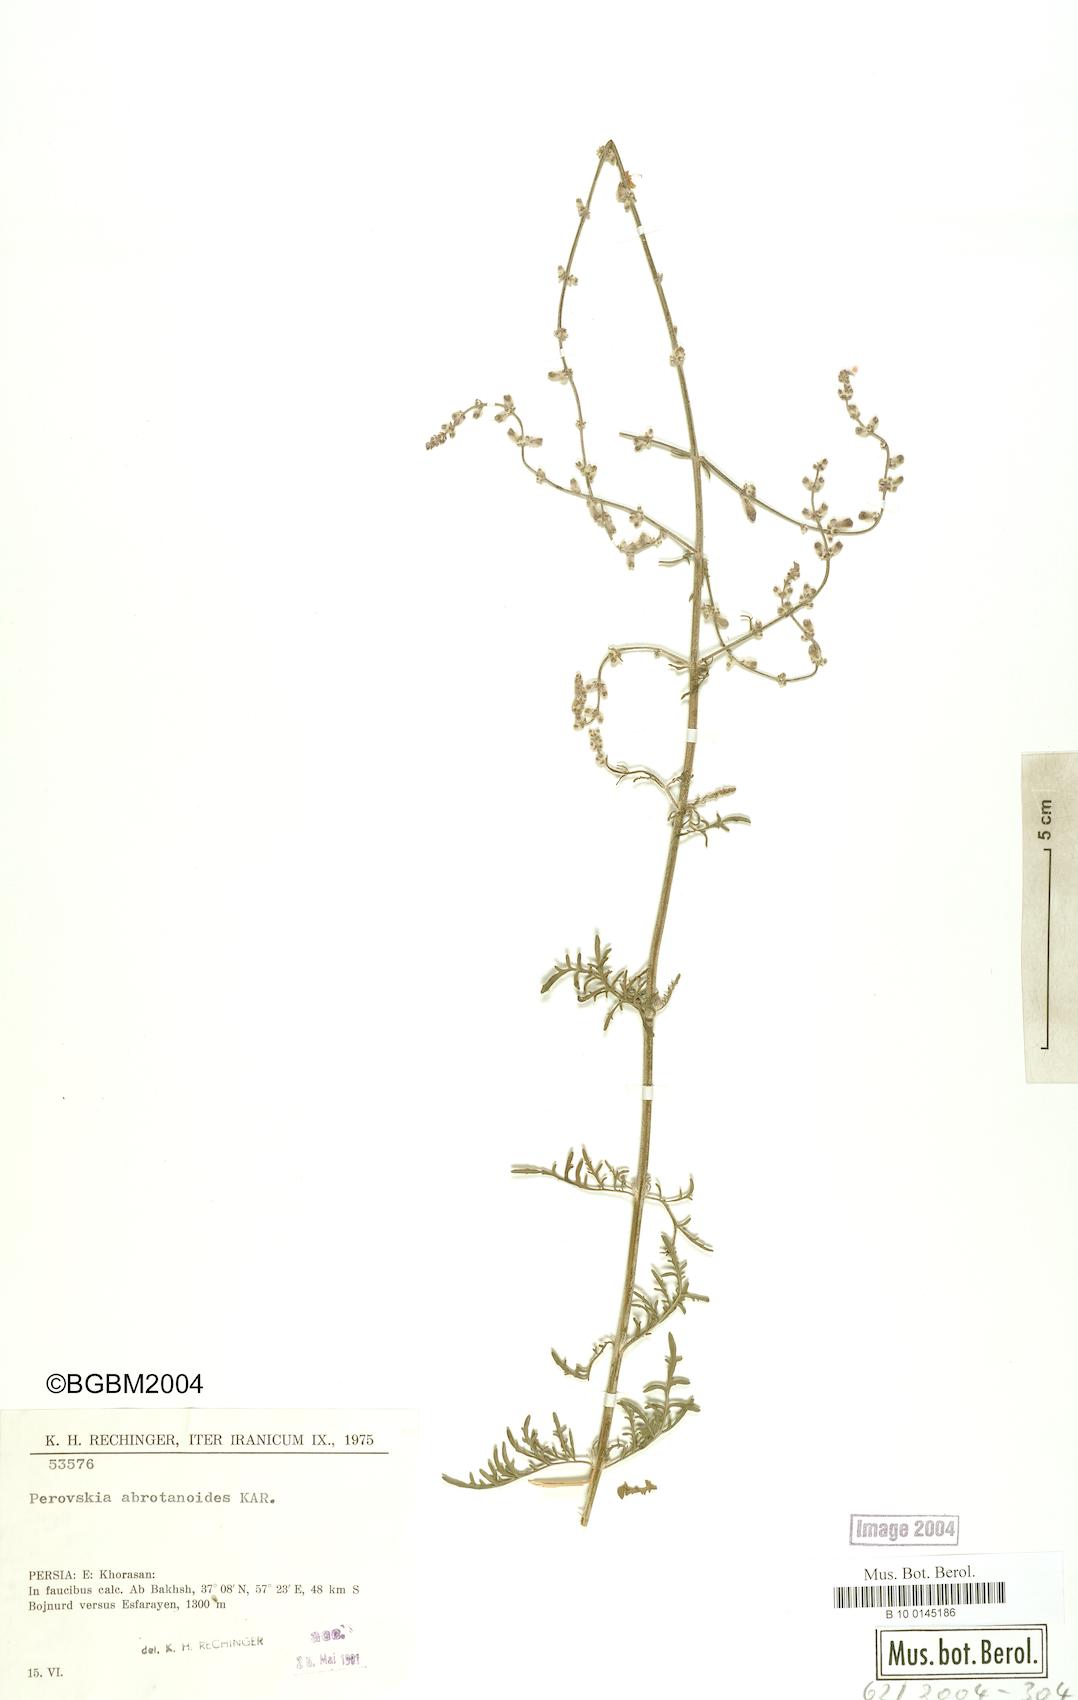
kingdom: Plantae
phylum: Tracheophyta
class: Magnoliopsida
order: Lamiales
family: Lamiaceae
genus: Salvia
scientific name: Salvia abrotanoides
